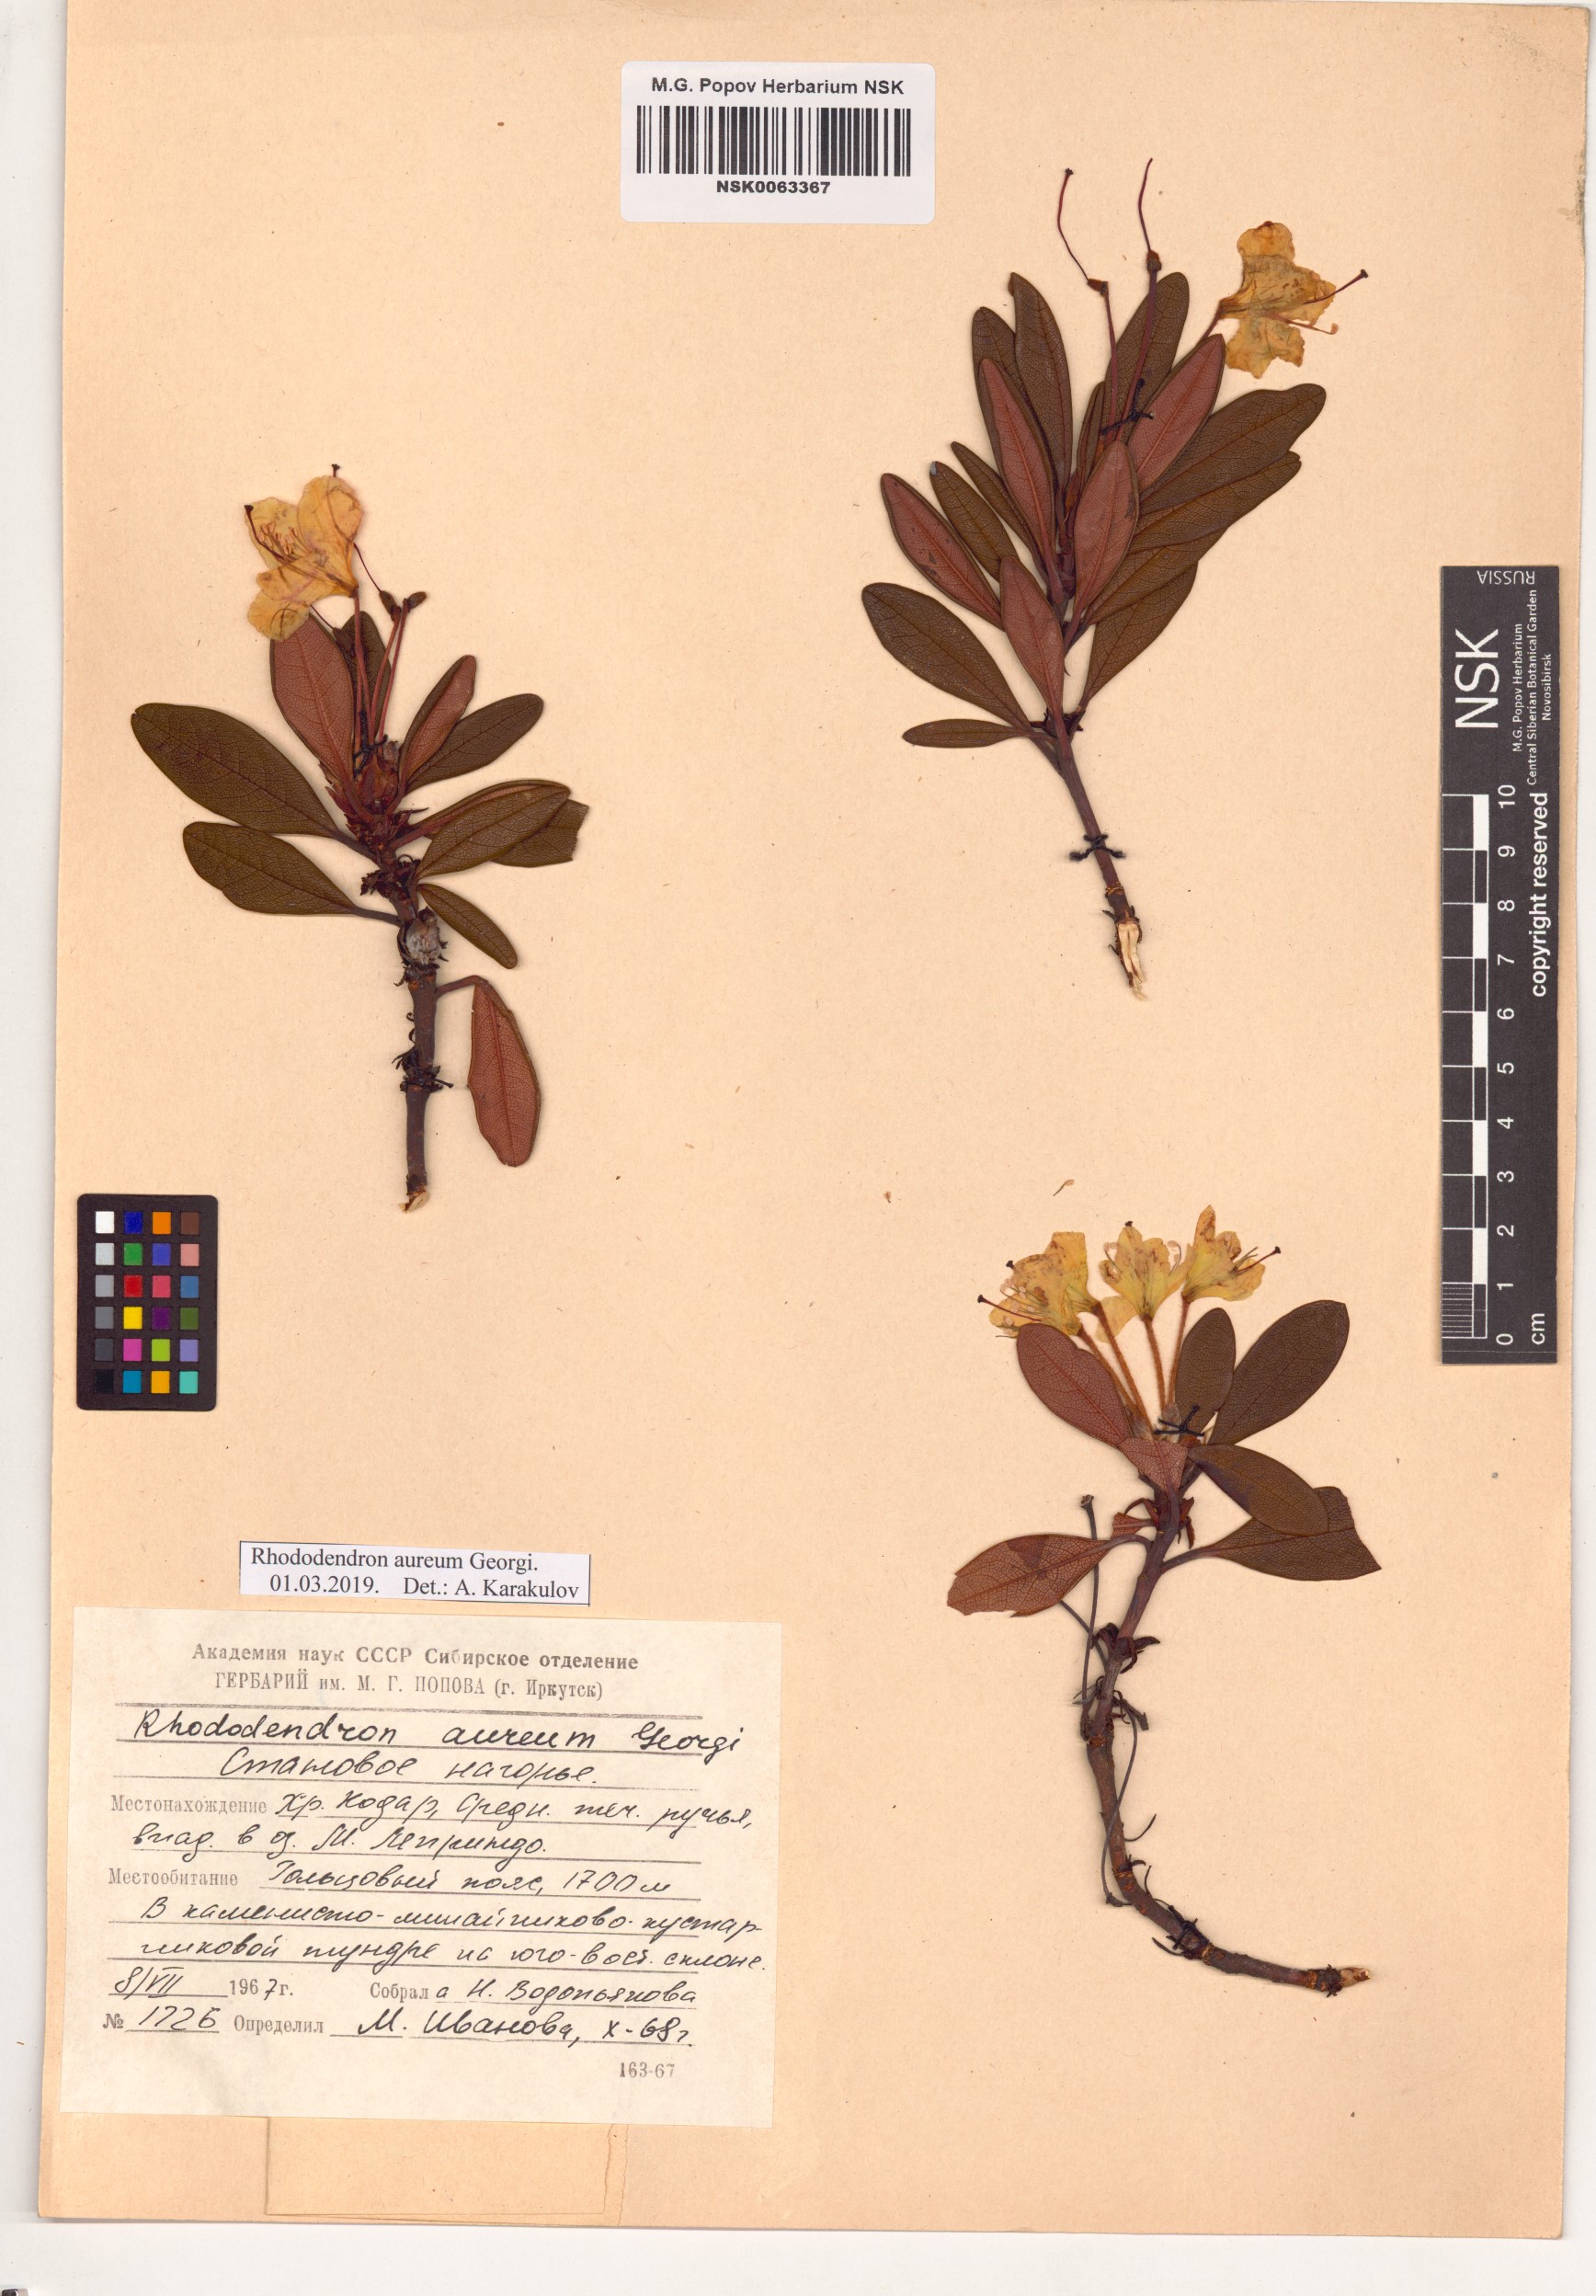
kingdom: Plantae
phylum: Tracheophyta
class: Magnoliopsida
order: Ericales
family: Ericaceae
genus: Rhododendron
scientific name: Rhododendron aureum
